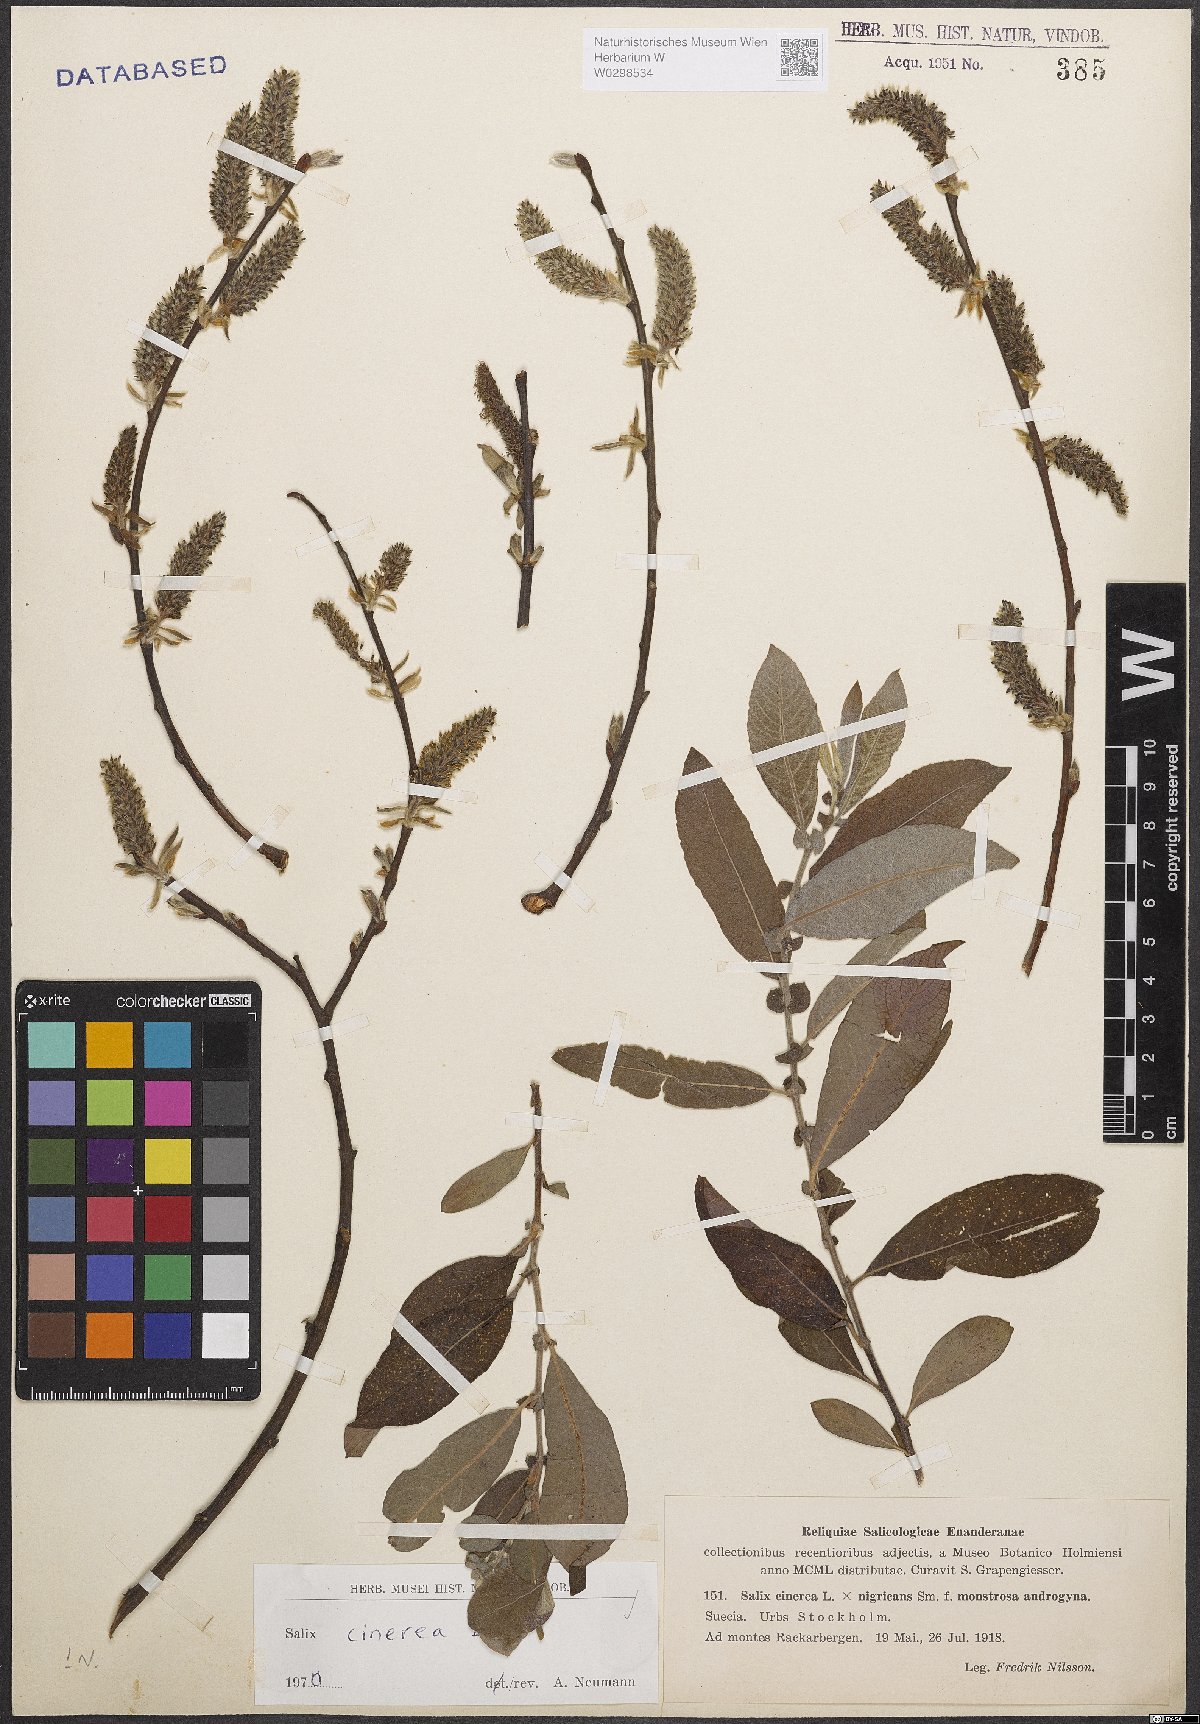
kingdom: Plantae
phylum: Tracheophyta
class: Magnoliopsida
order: Malpighiales
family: Salicaceae
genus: Salix
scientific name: Salix cinerea
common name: Common sallow
